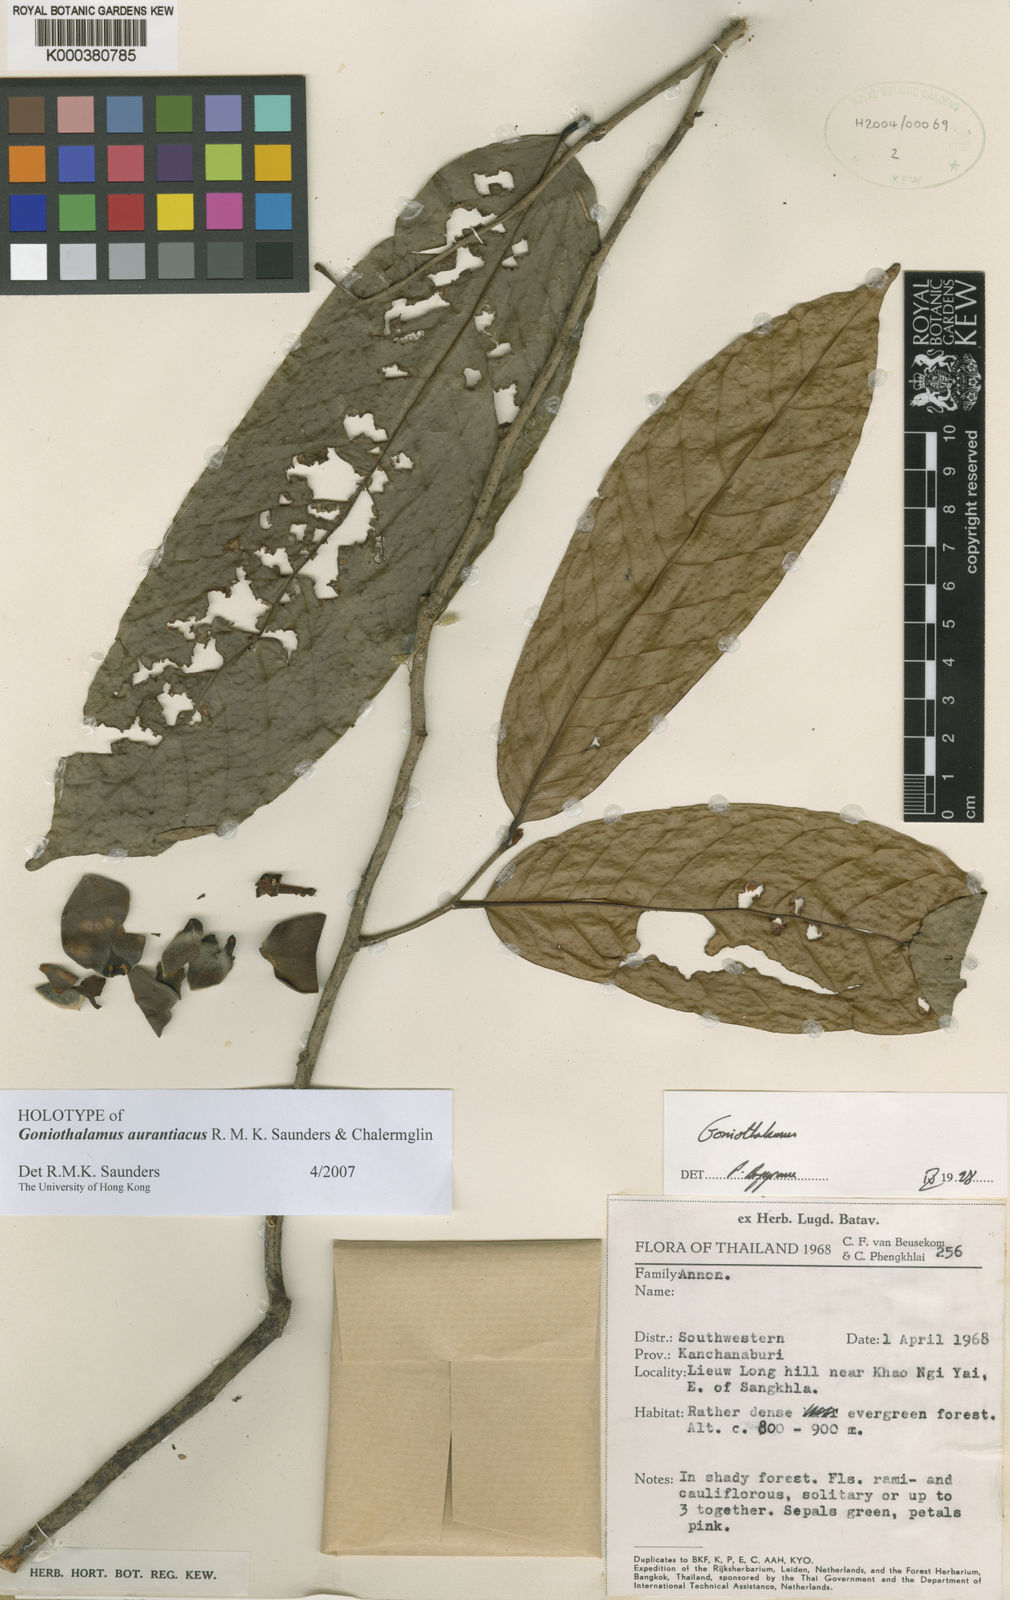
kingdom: Plantae
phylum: Tracheophyta
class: Magnoliopsida
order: Magnoliales
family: Annonaceae
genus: Goniothalamus
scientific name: Goniothalamus aurantiacus
